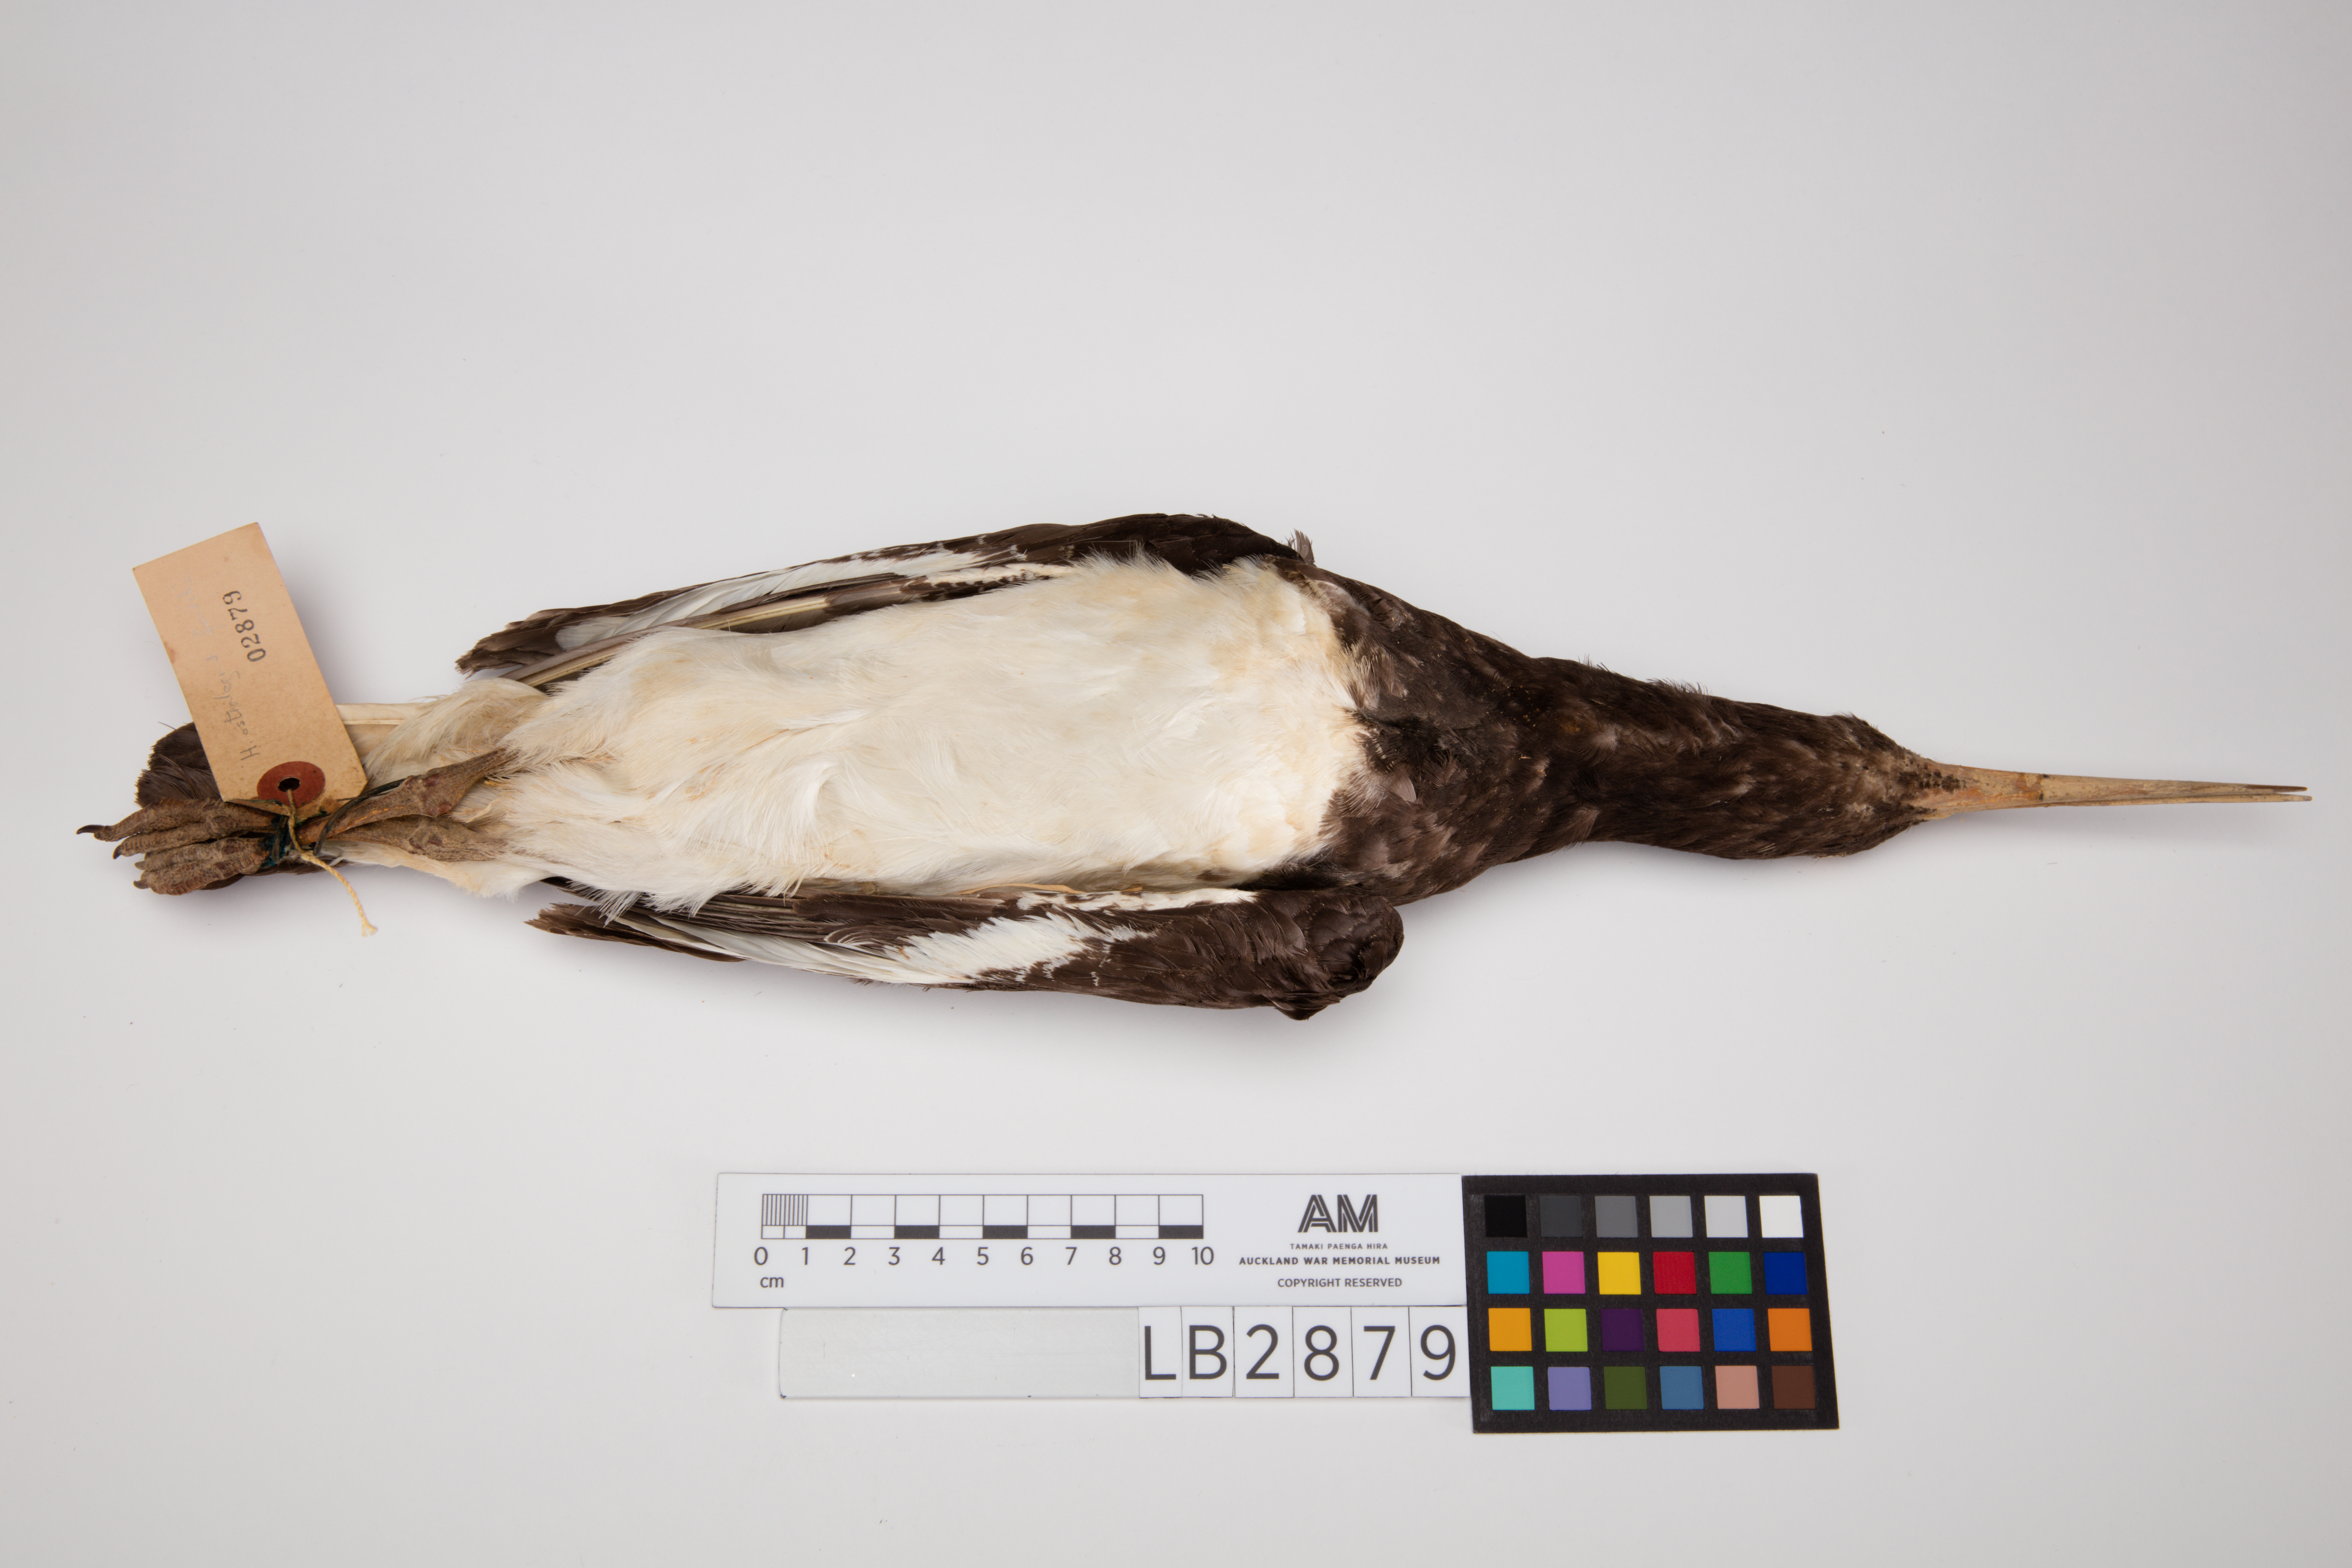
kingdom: Animalia
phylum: Chordata
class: Aves
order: Charadriiformes
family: Haematopodidae
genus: Haematopus
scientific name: Haematopus finschi
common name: South island oystercatcher
